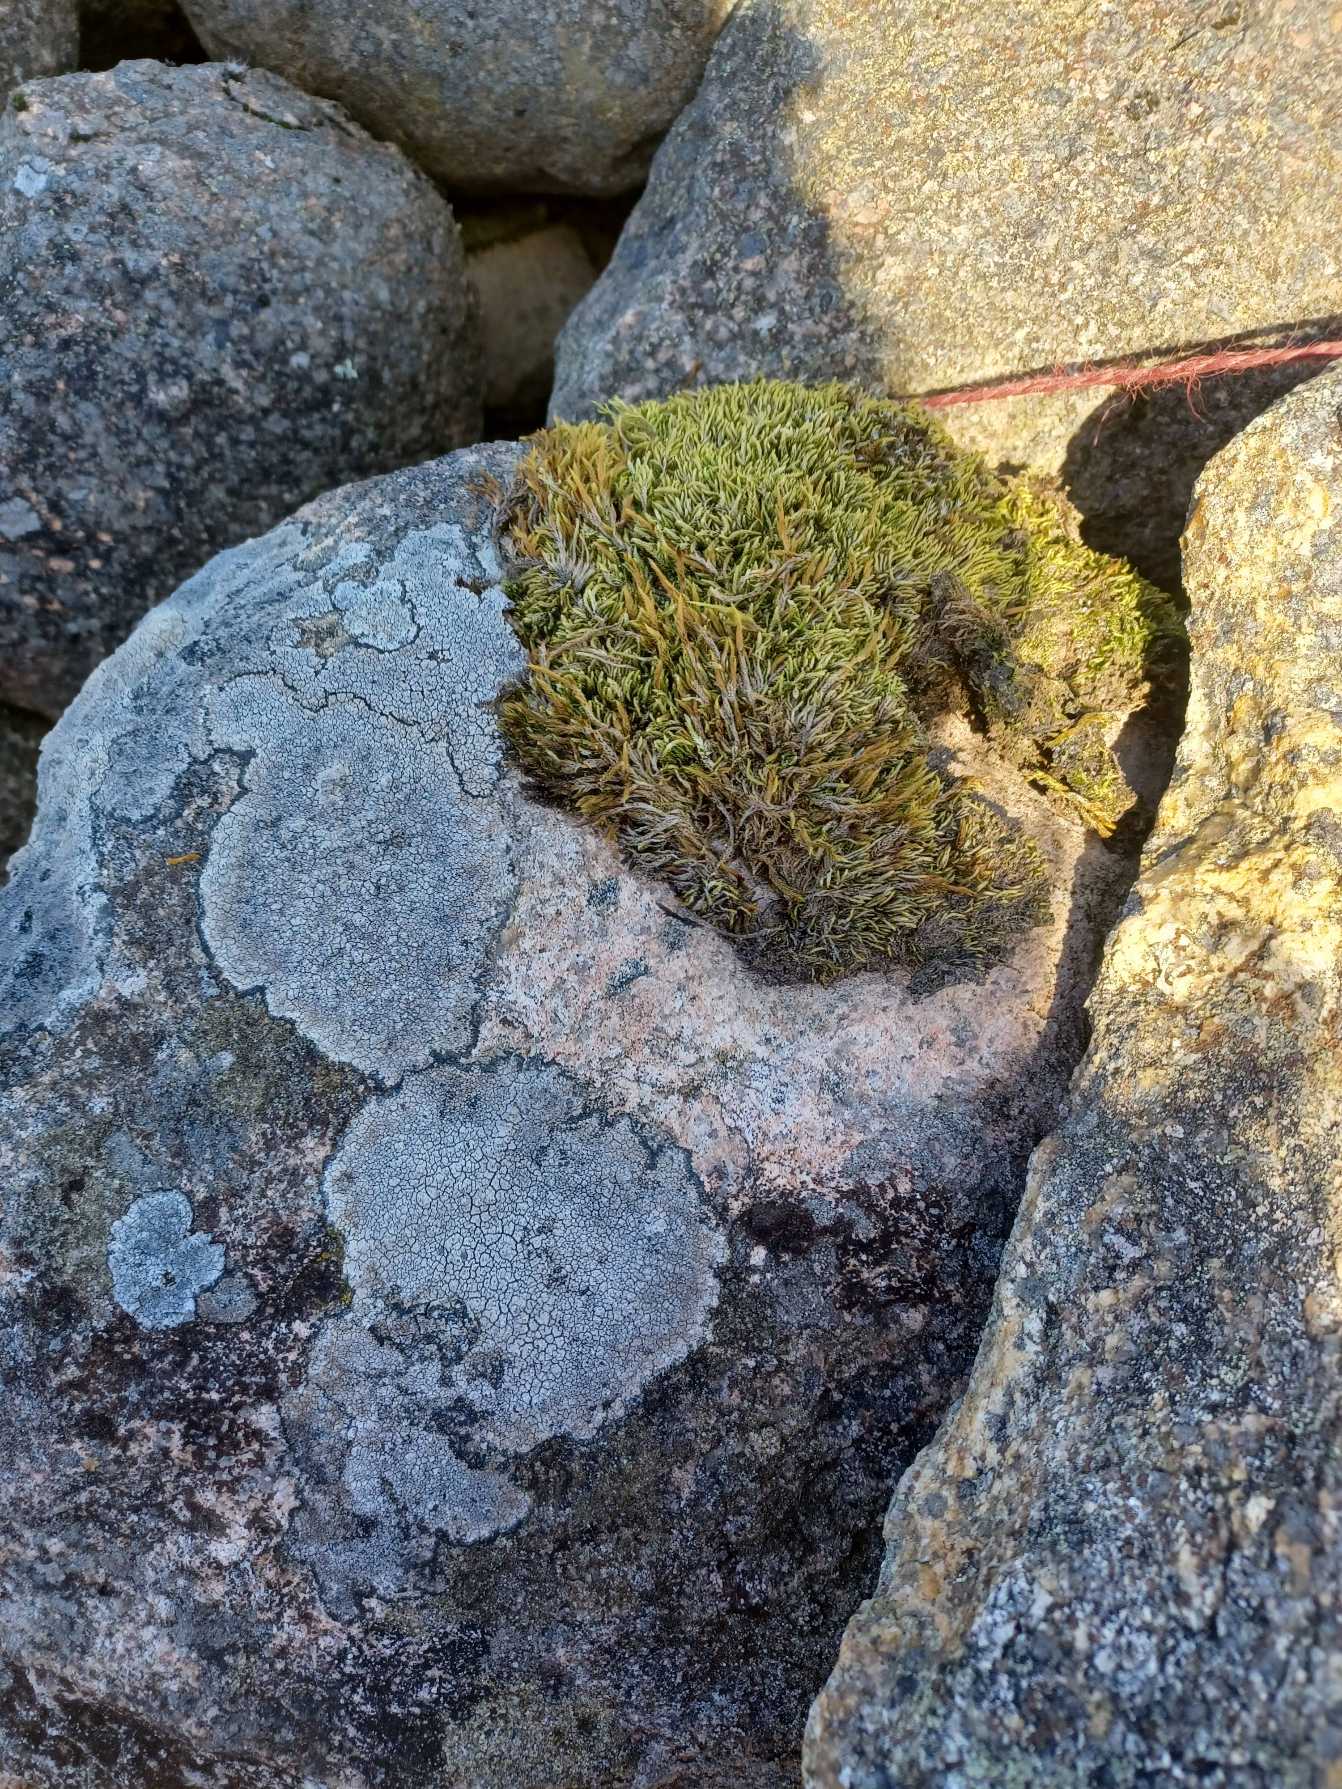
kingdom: Plantae
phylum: Bryophyta
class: Bryopsida
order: Hypnales
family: Hypnaceae
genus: Hypnum
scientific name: Hypnum cupressiforme
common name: Almindelig cypresmos
